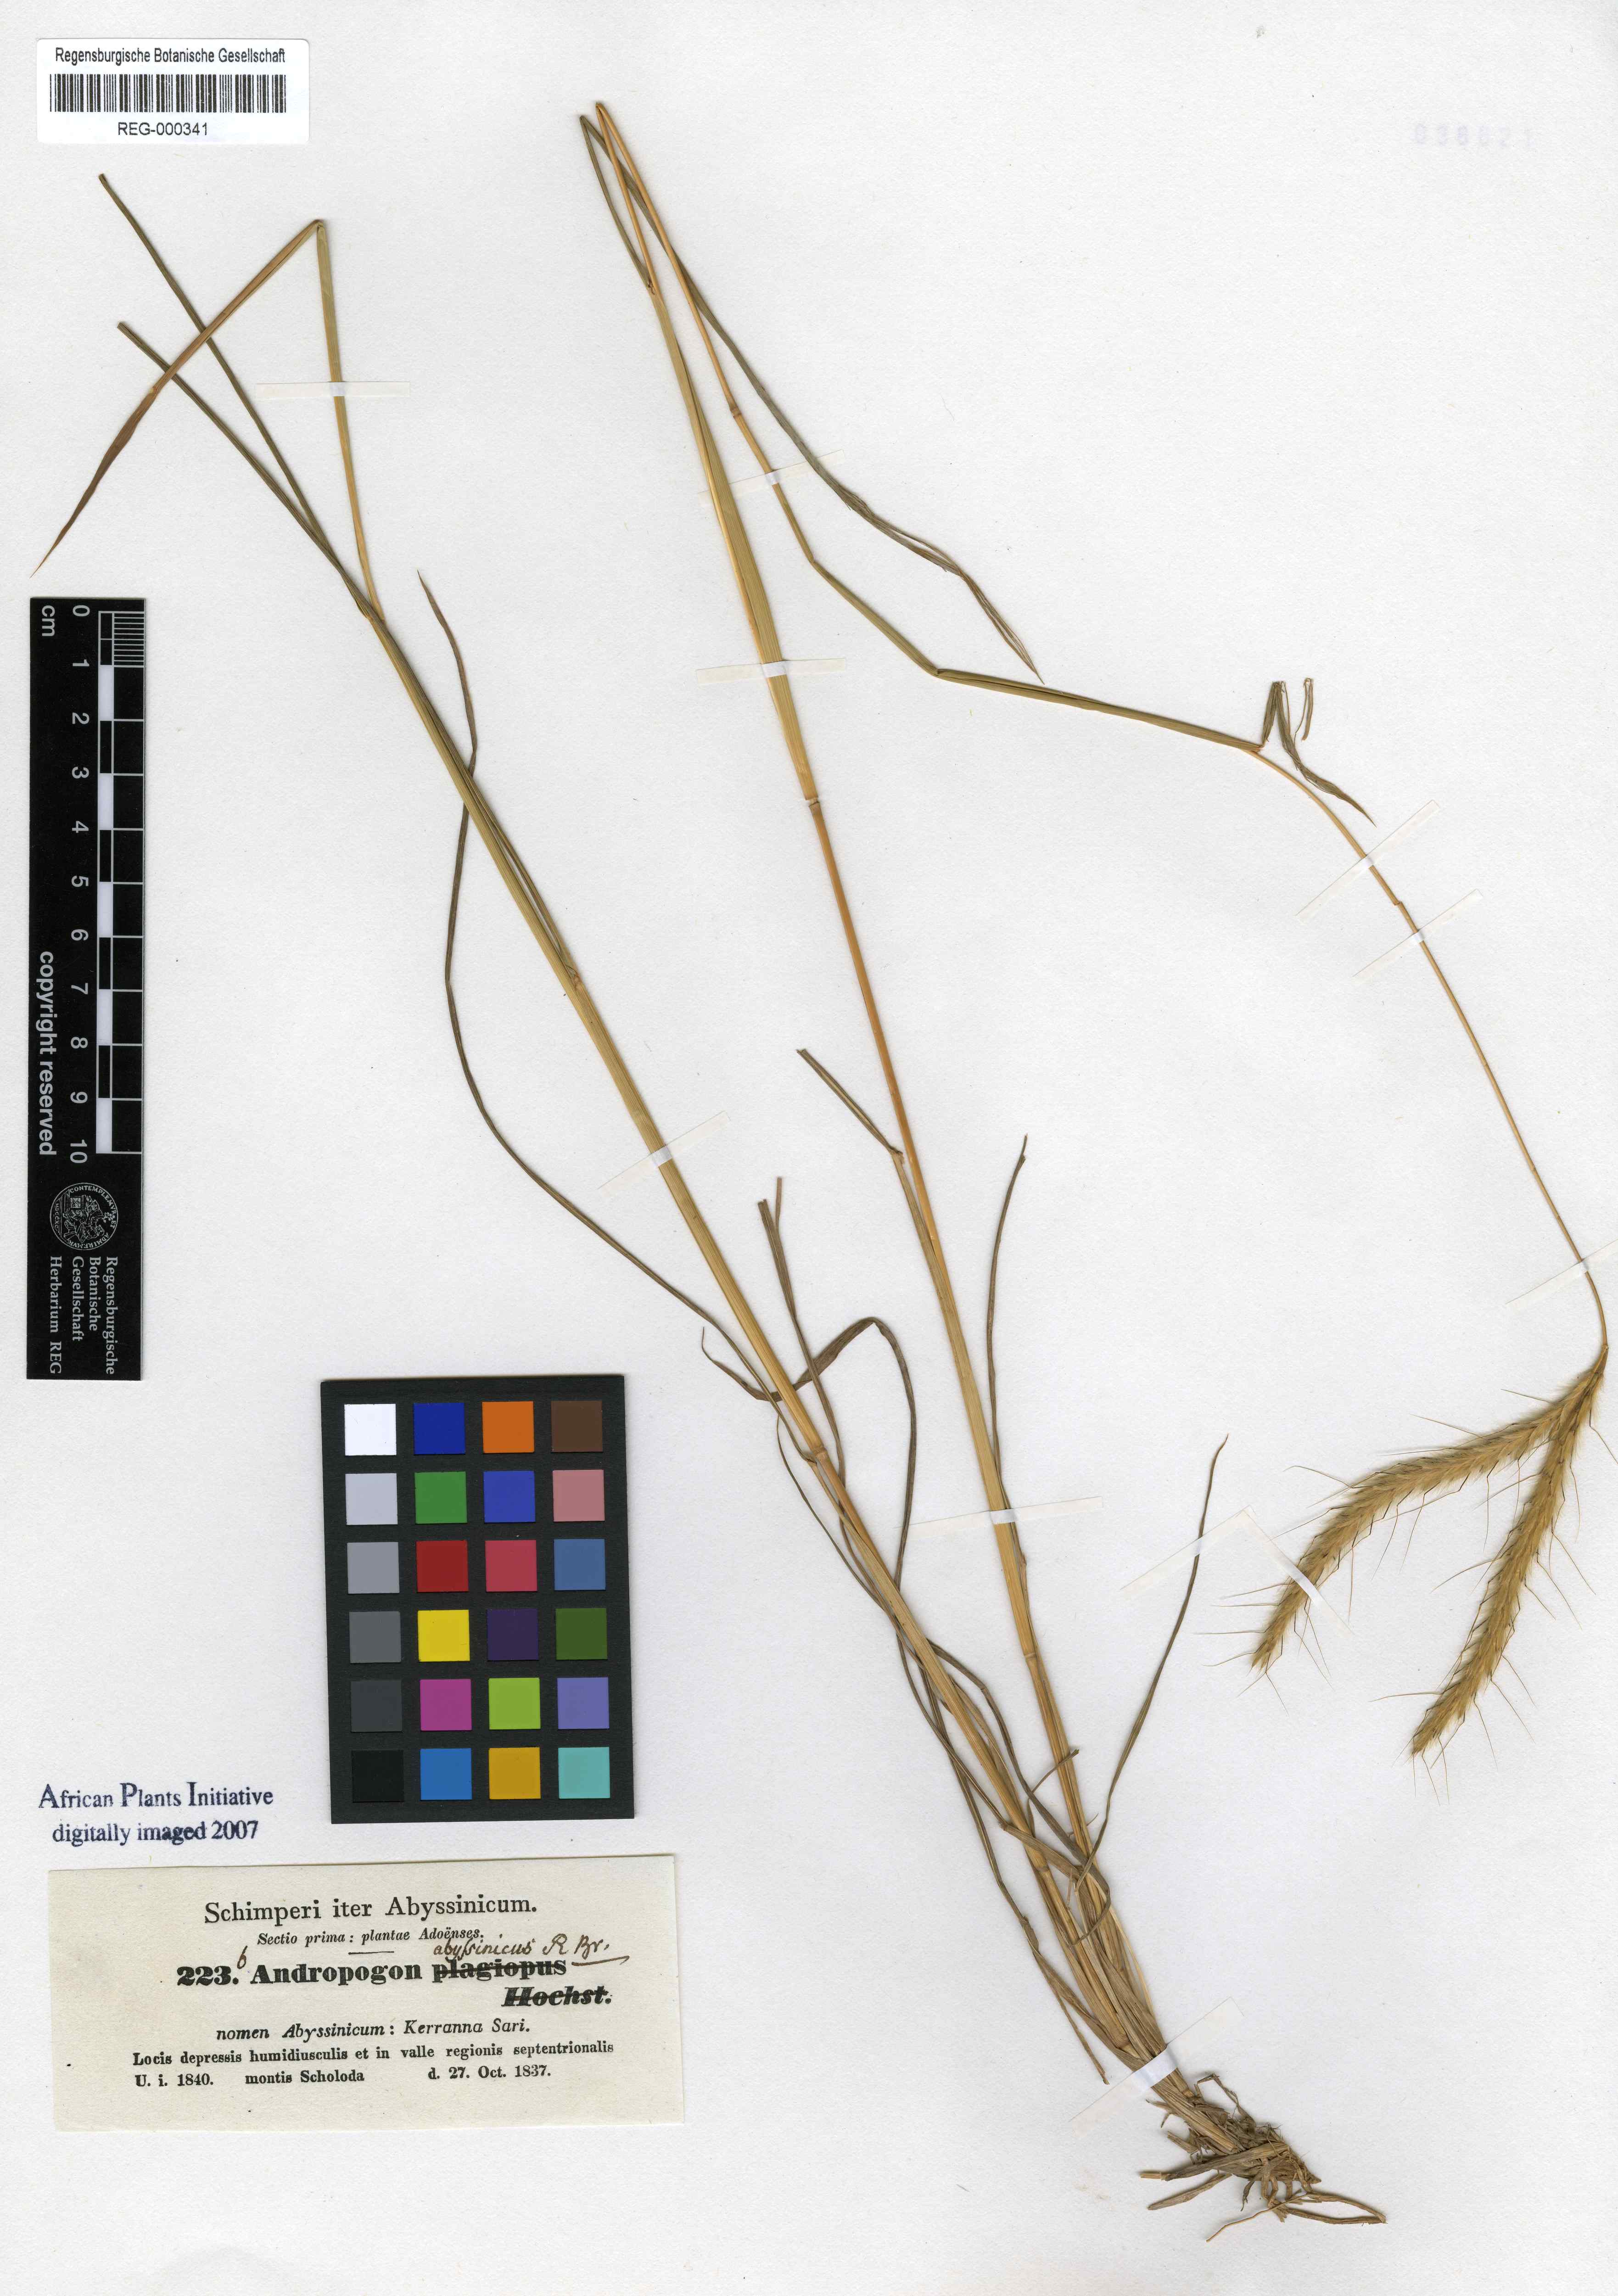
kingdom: Plantae
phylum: Tracheophyta
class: Liliopsida
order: Poales
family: Poaceae
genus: Andropogon
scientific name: Andropogon abyssinicus
